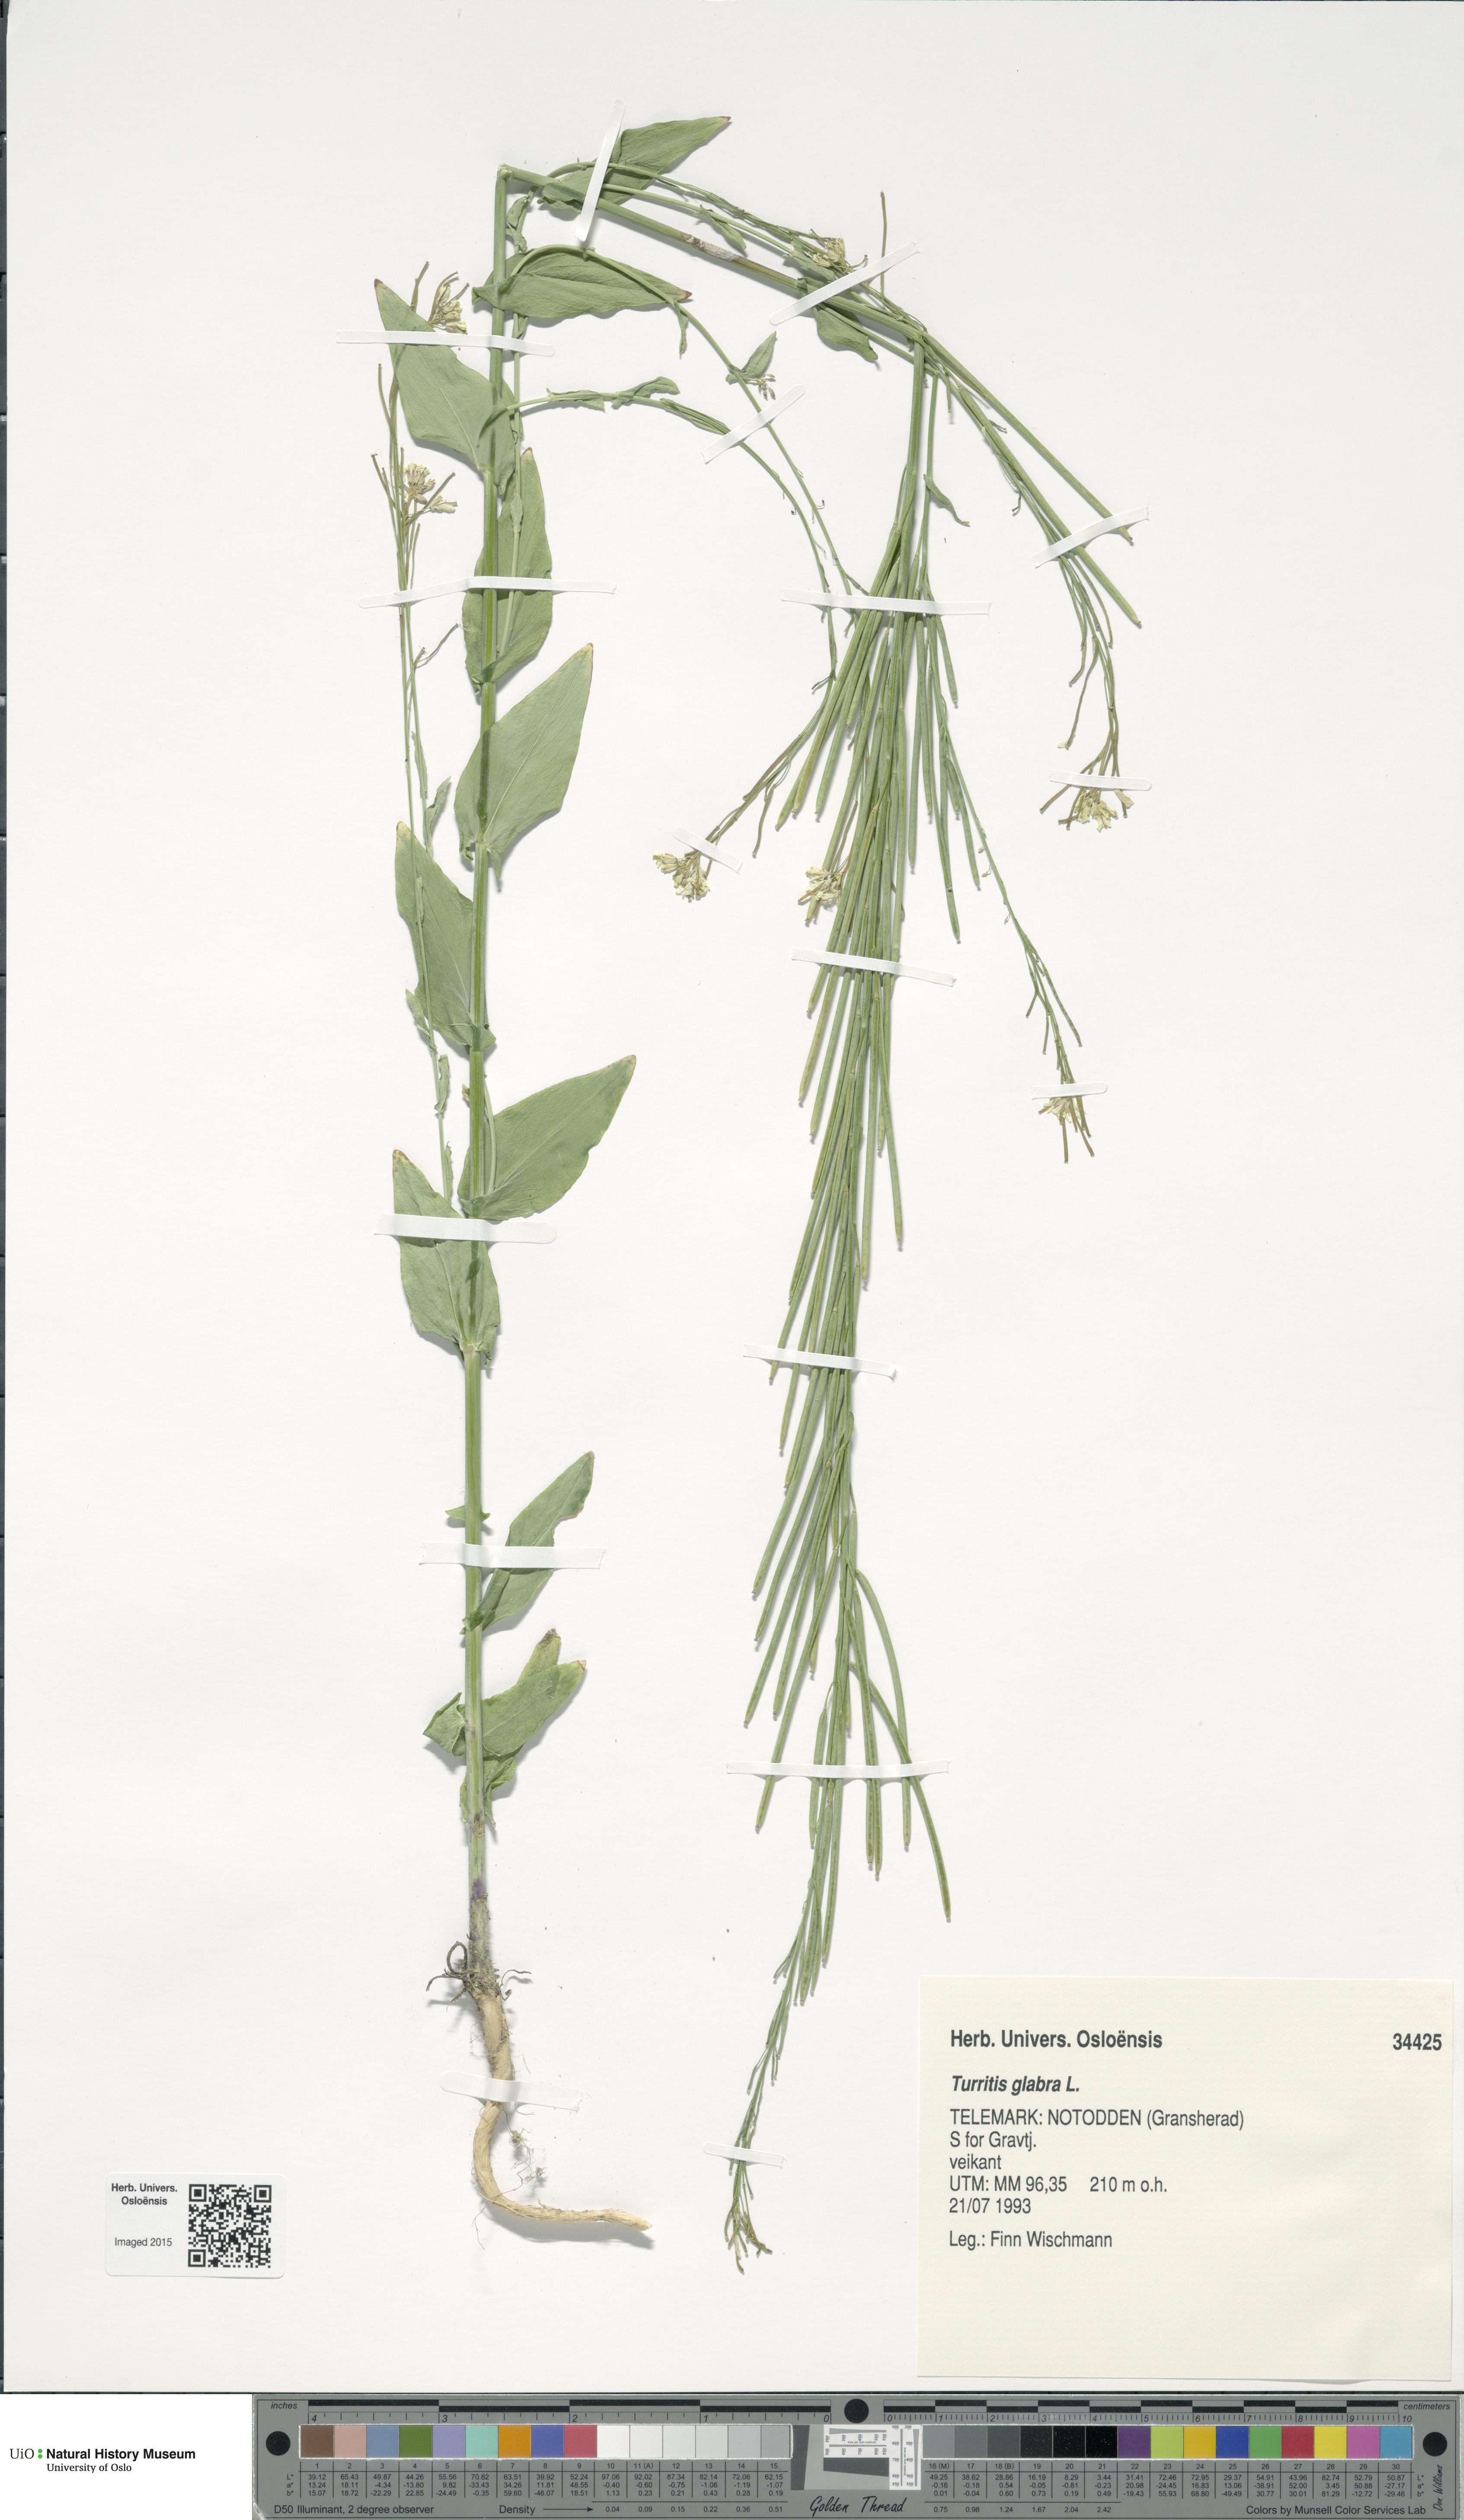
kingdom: Plantae
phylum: Tracheophyta
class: Magnoliopsida
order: Brassicales
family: Brassicaceae
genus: Turritis
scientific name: Turritis glabra
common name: Tower rockcress
